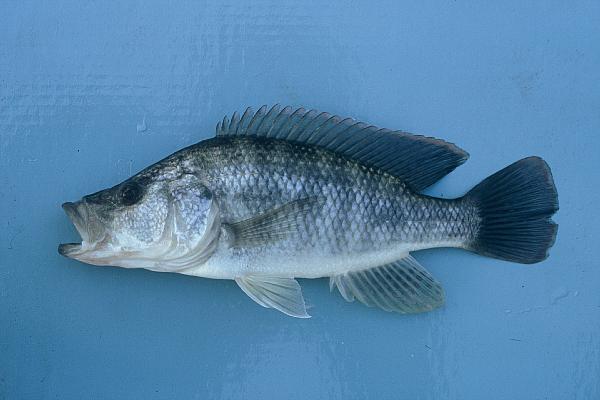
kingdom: Animalia
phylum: Chordata
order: Perciformes
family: Cichlidae
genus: Serranochromis
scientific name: Serranochromis macrocephalus
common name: Purpleface largemouth
